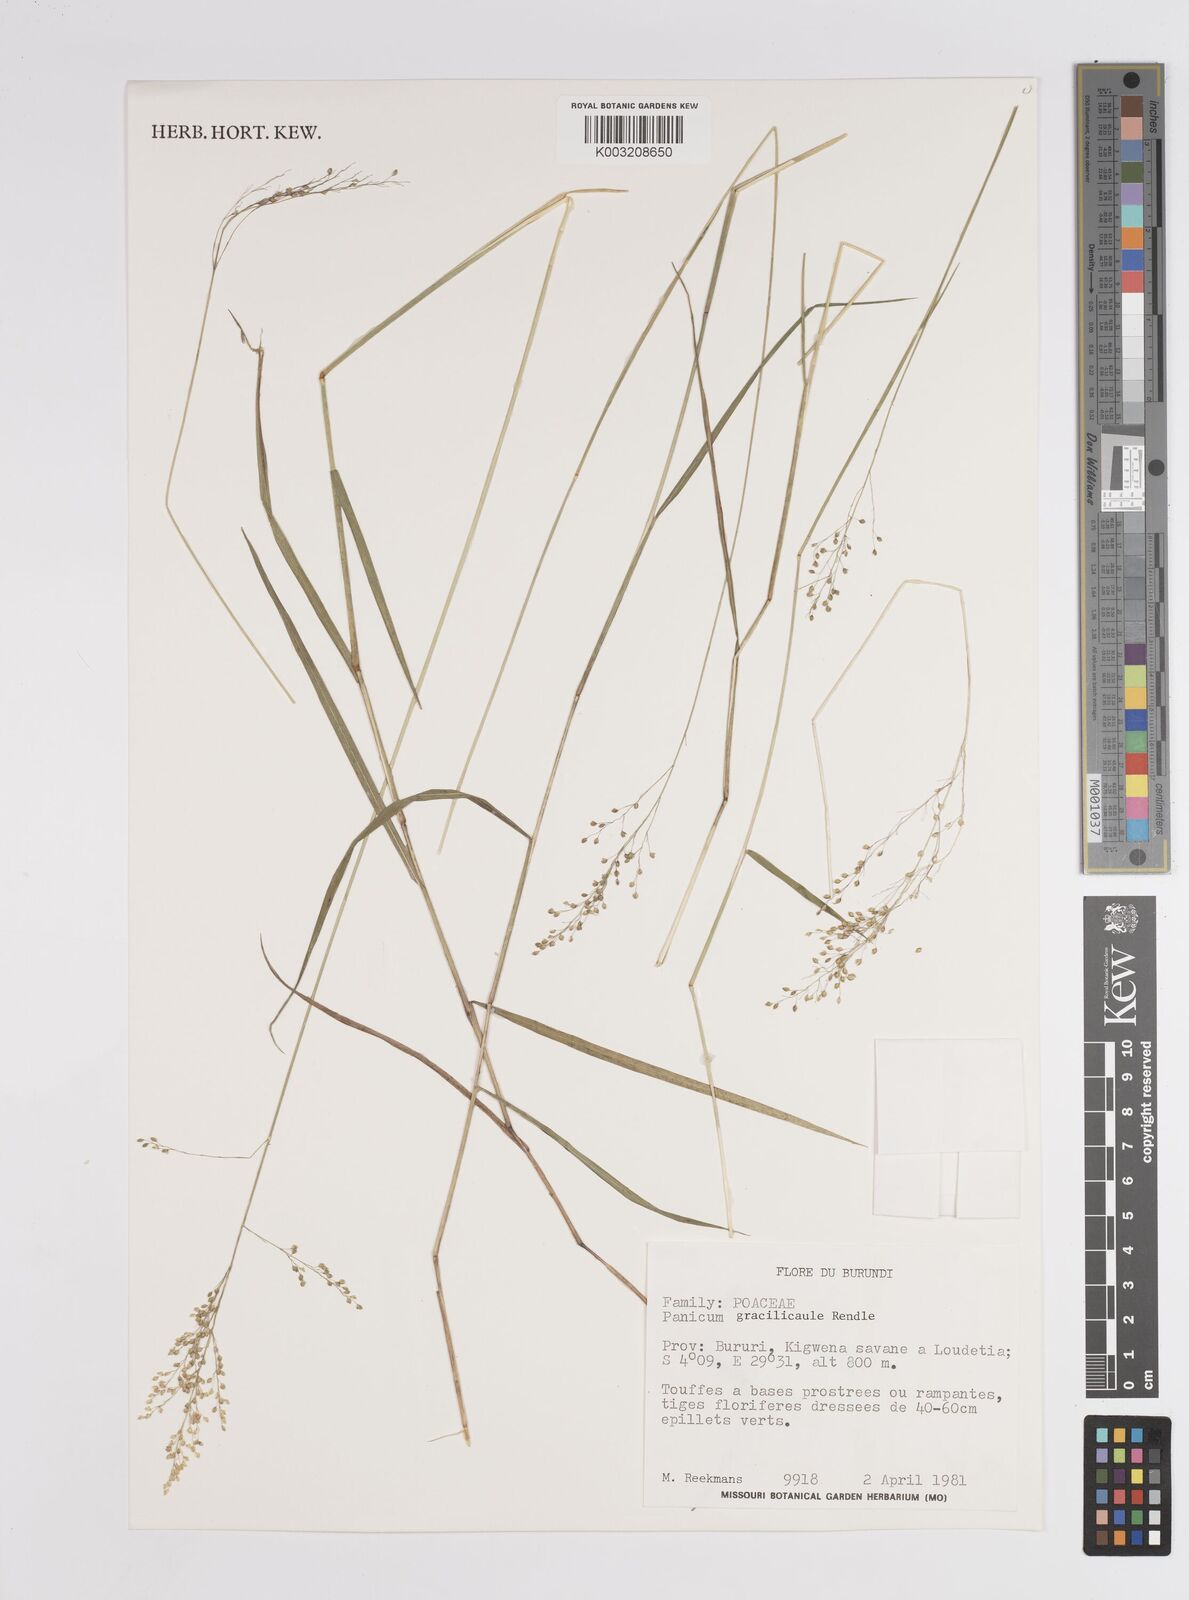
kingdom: Plantae
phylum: Tracheophyta
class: Liliopsida
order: Poales
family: Poaceae
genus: Panicum
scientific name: Panicum
